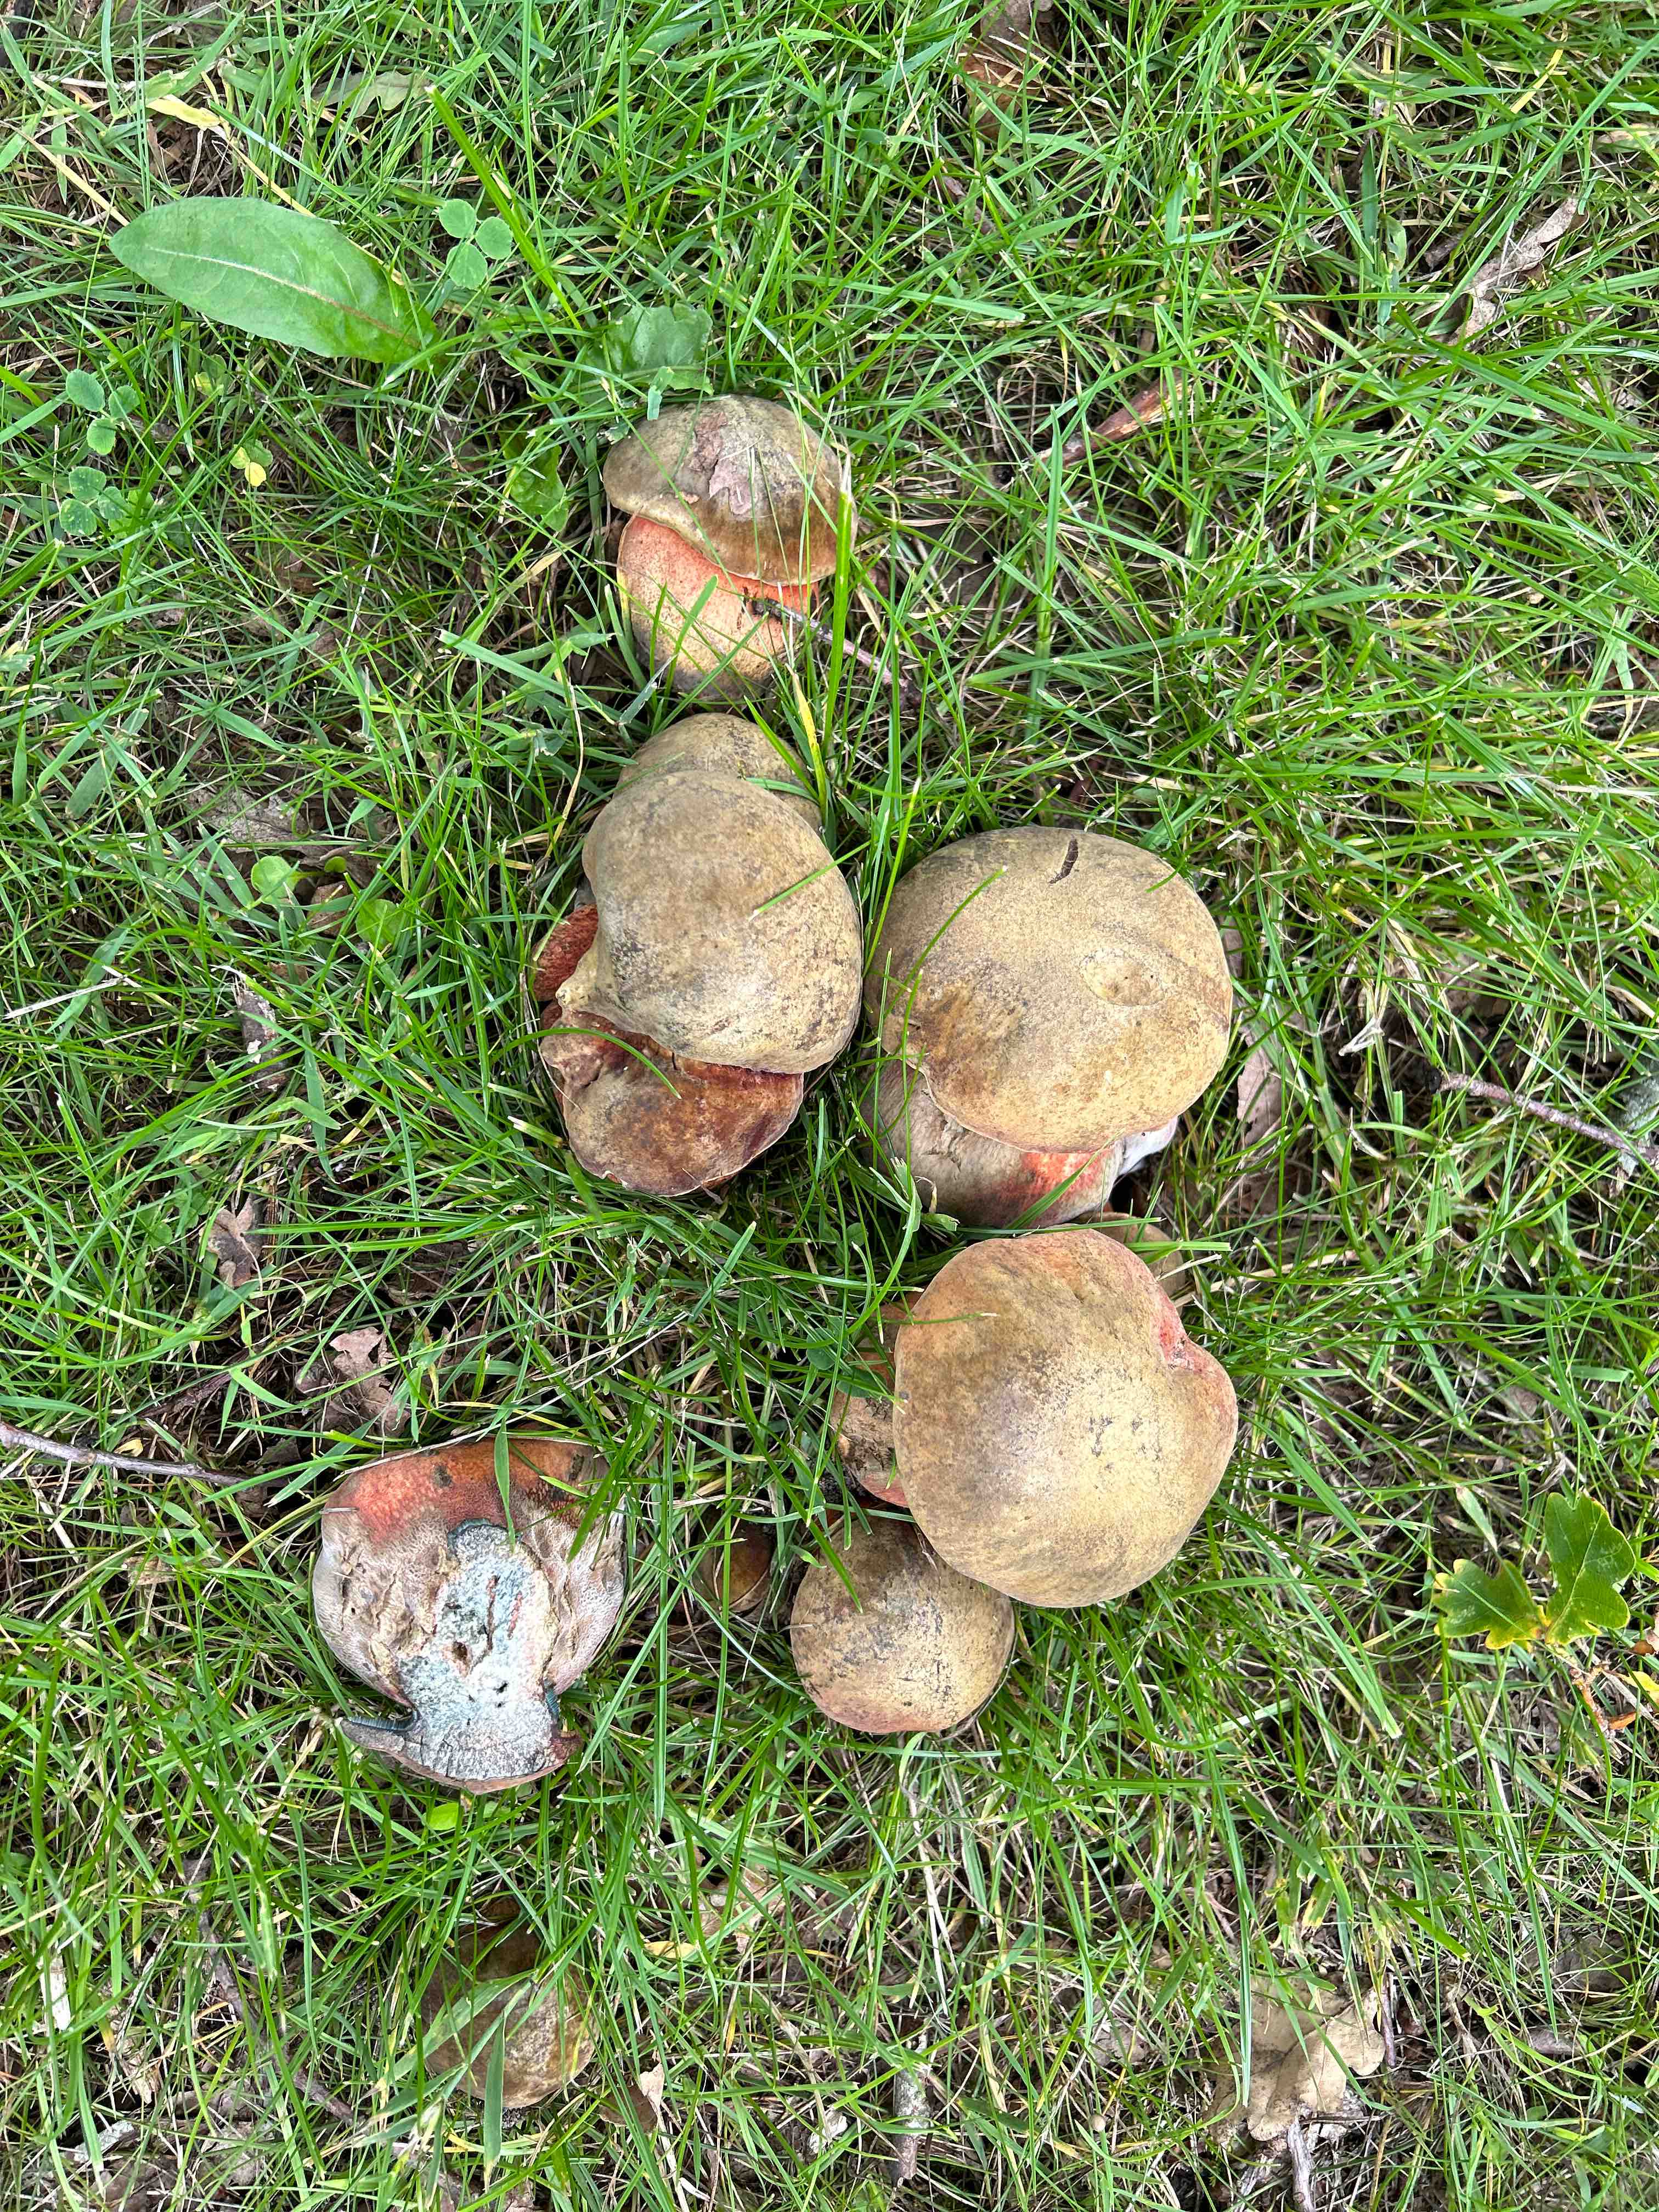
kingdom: Fungi
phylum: Basidiomycota
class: Agaricomycetes
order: Boletales
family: Boletaceae
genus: Suillellus
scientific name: Suillellus luridus
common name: netstokket indigorørhat
